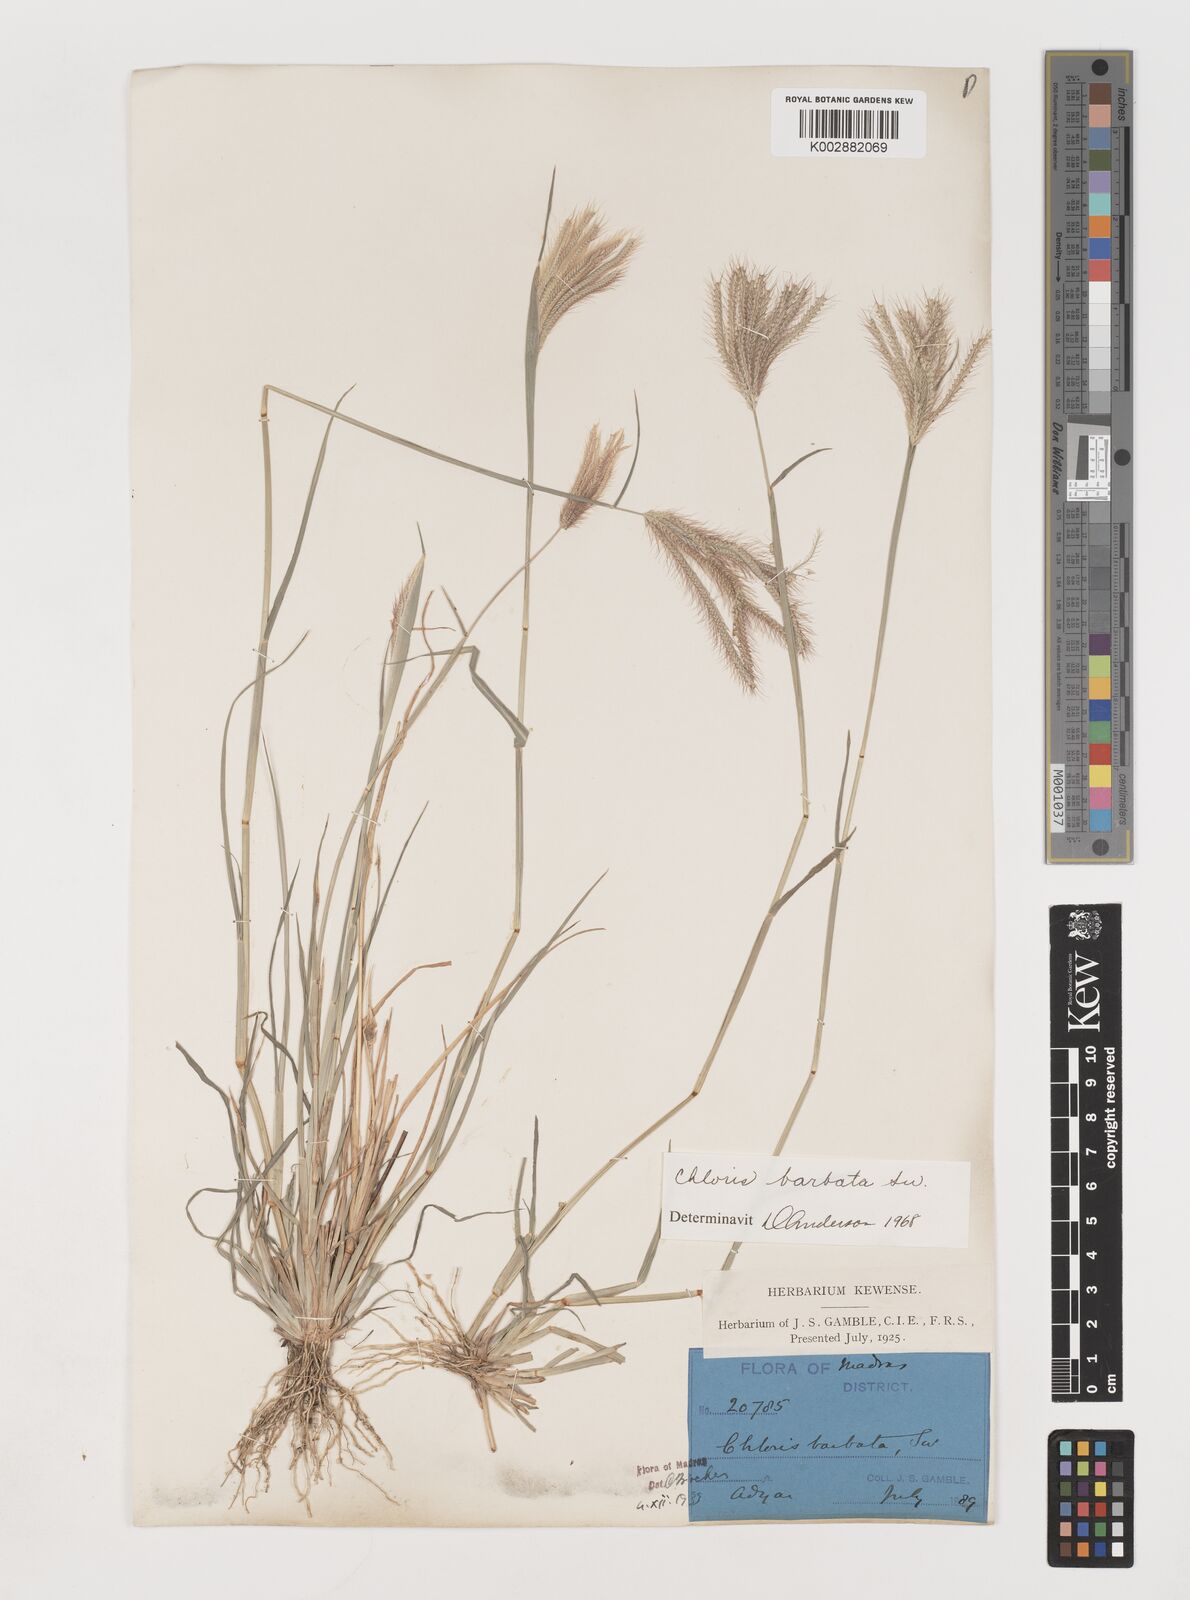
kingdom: Plantae
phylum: Tracheophyta
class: Liliopsida
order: Poales
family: Poaceae
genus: Chloris
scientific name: Chloris barbata
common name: Swollen fingergrass
